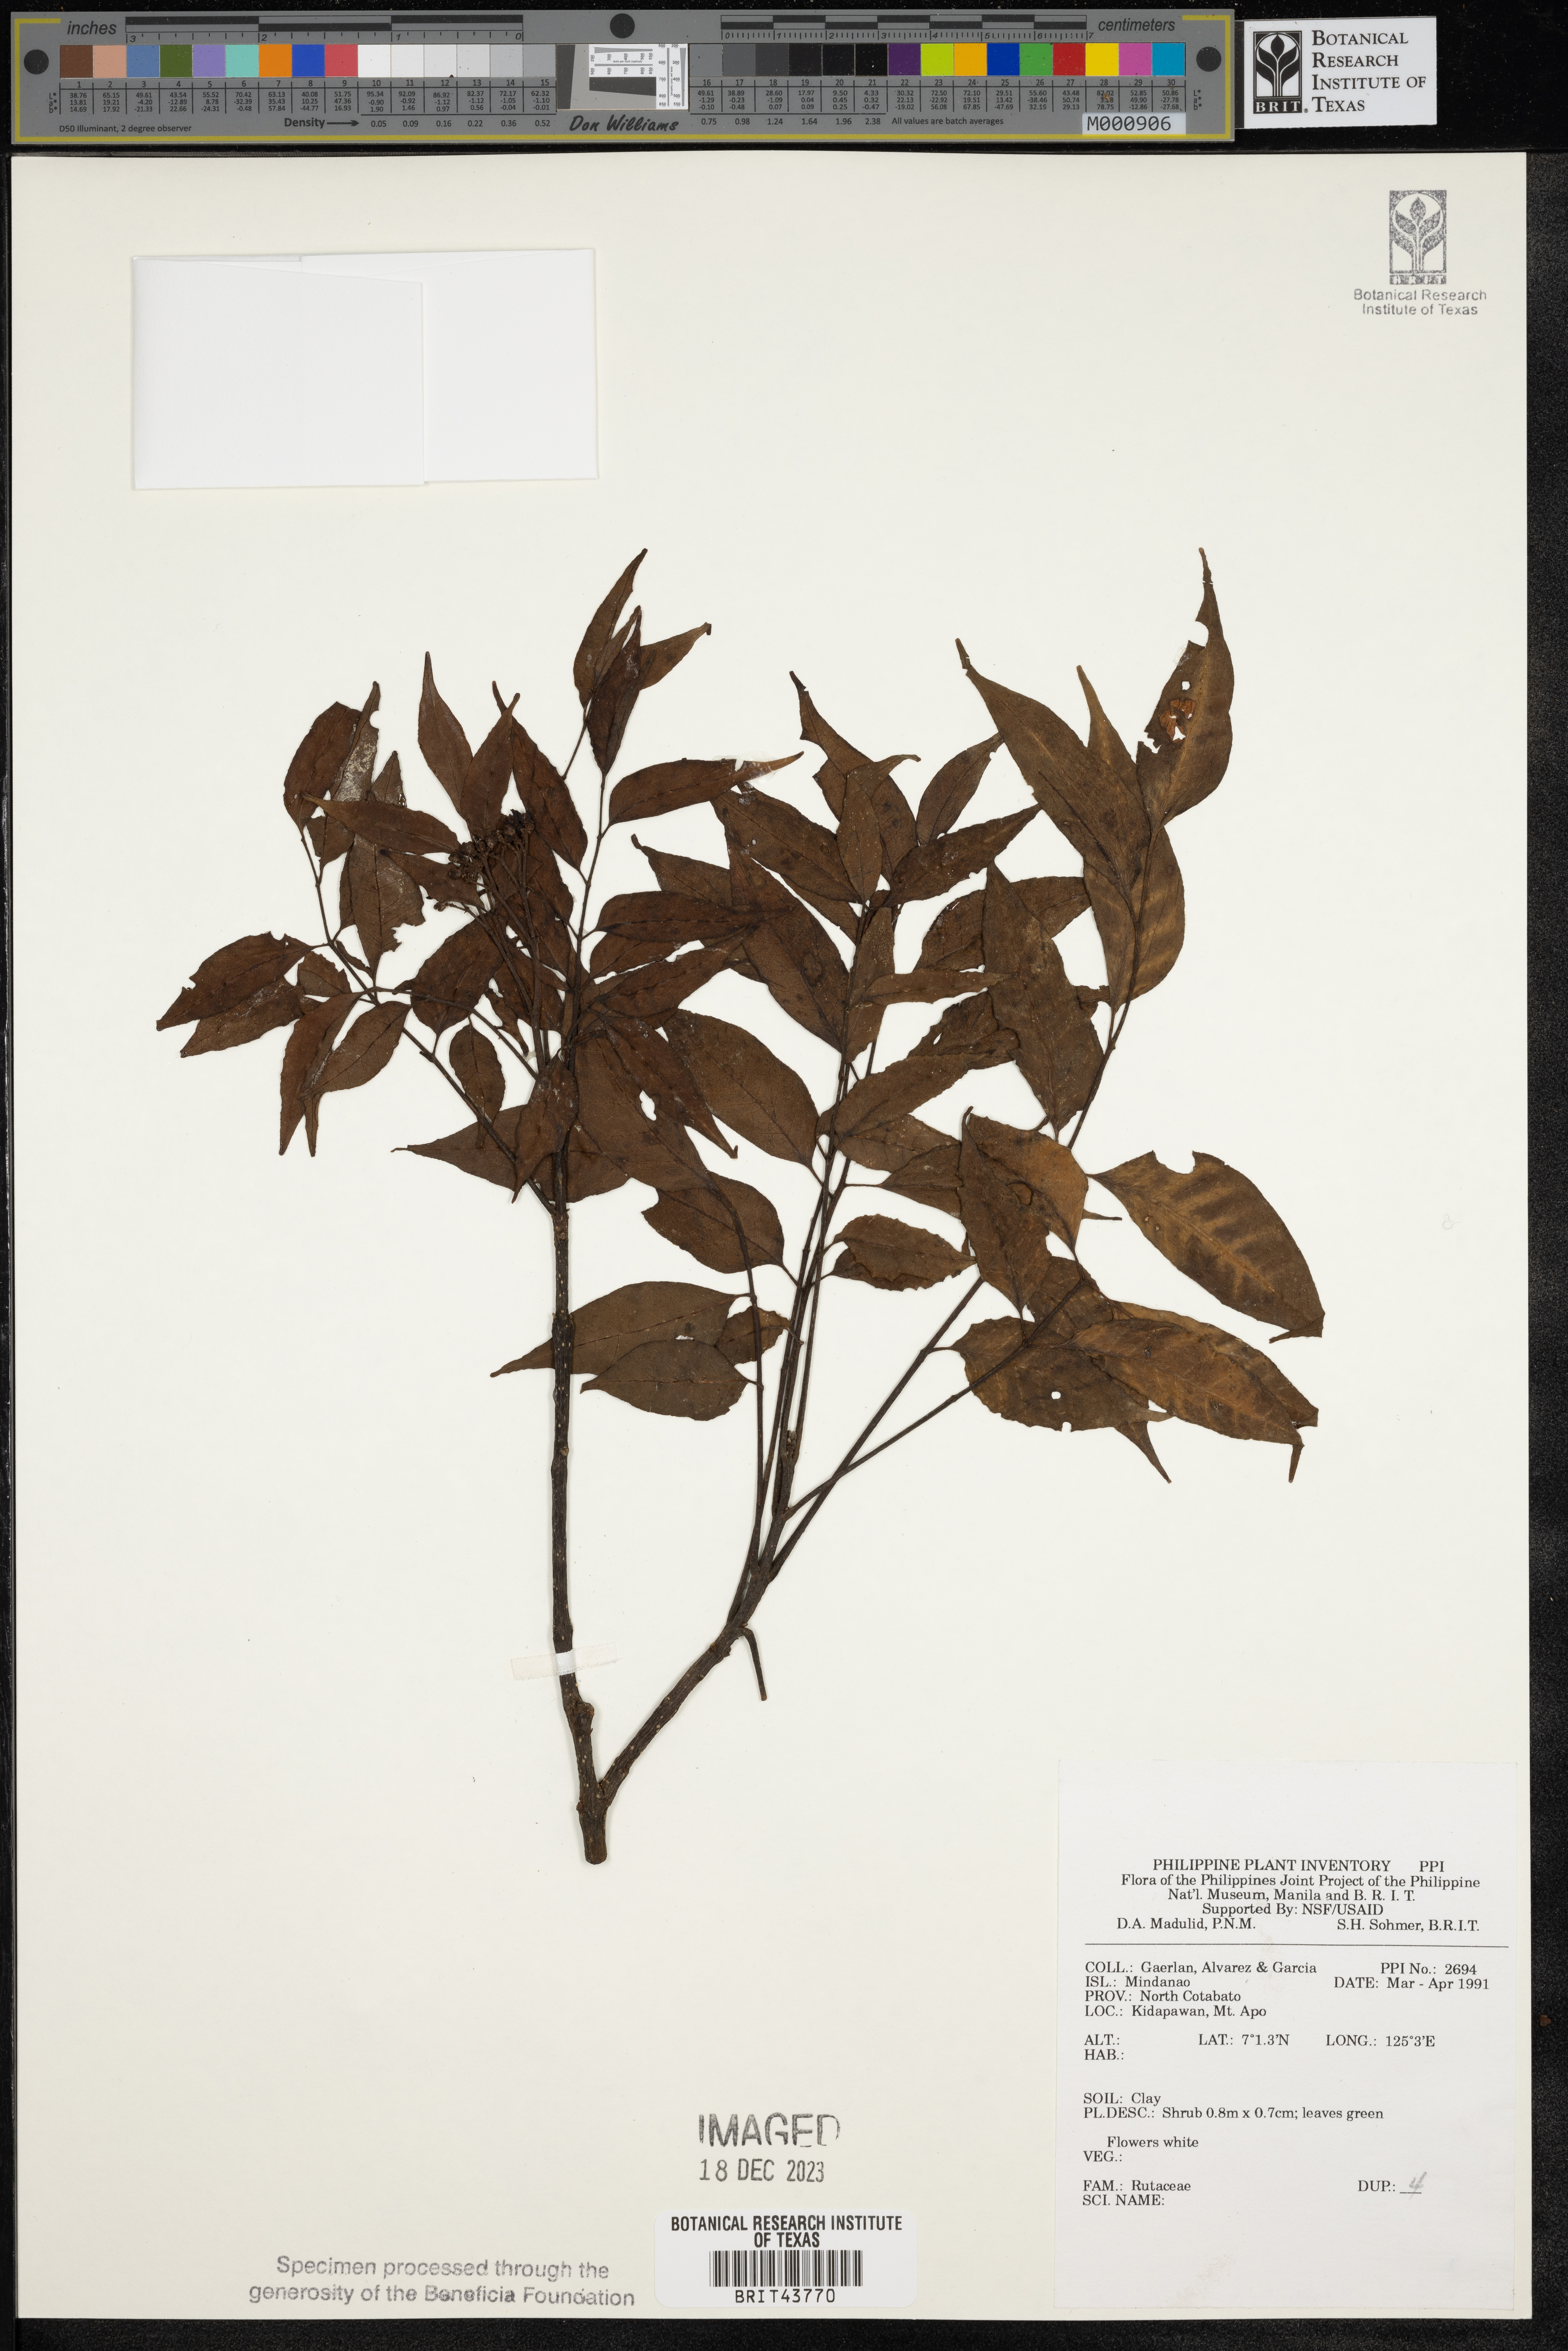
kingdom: Plantae
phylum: Tracheophyta
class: Magnoliopsida
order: Sapindales
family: Rutaceae
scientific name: Rutaceae
